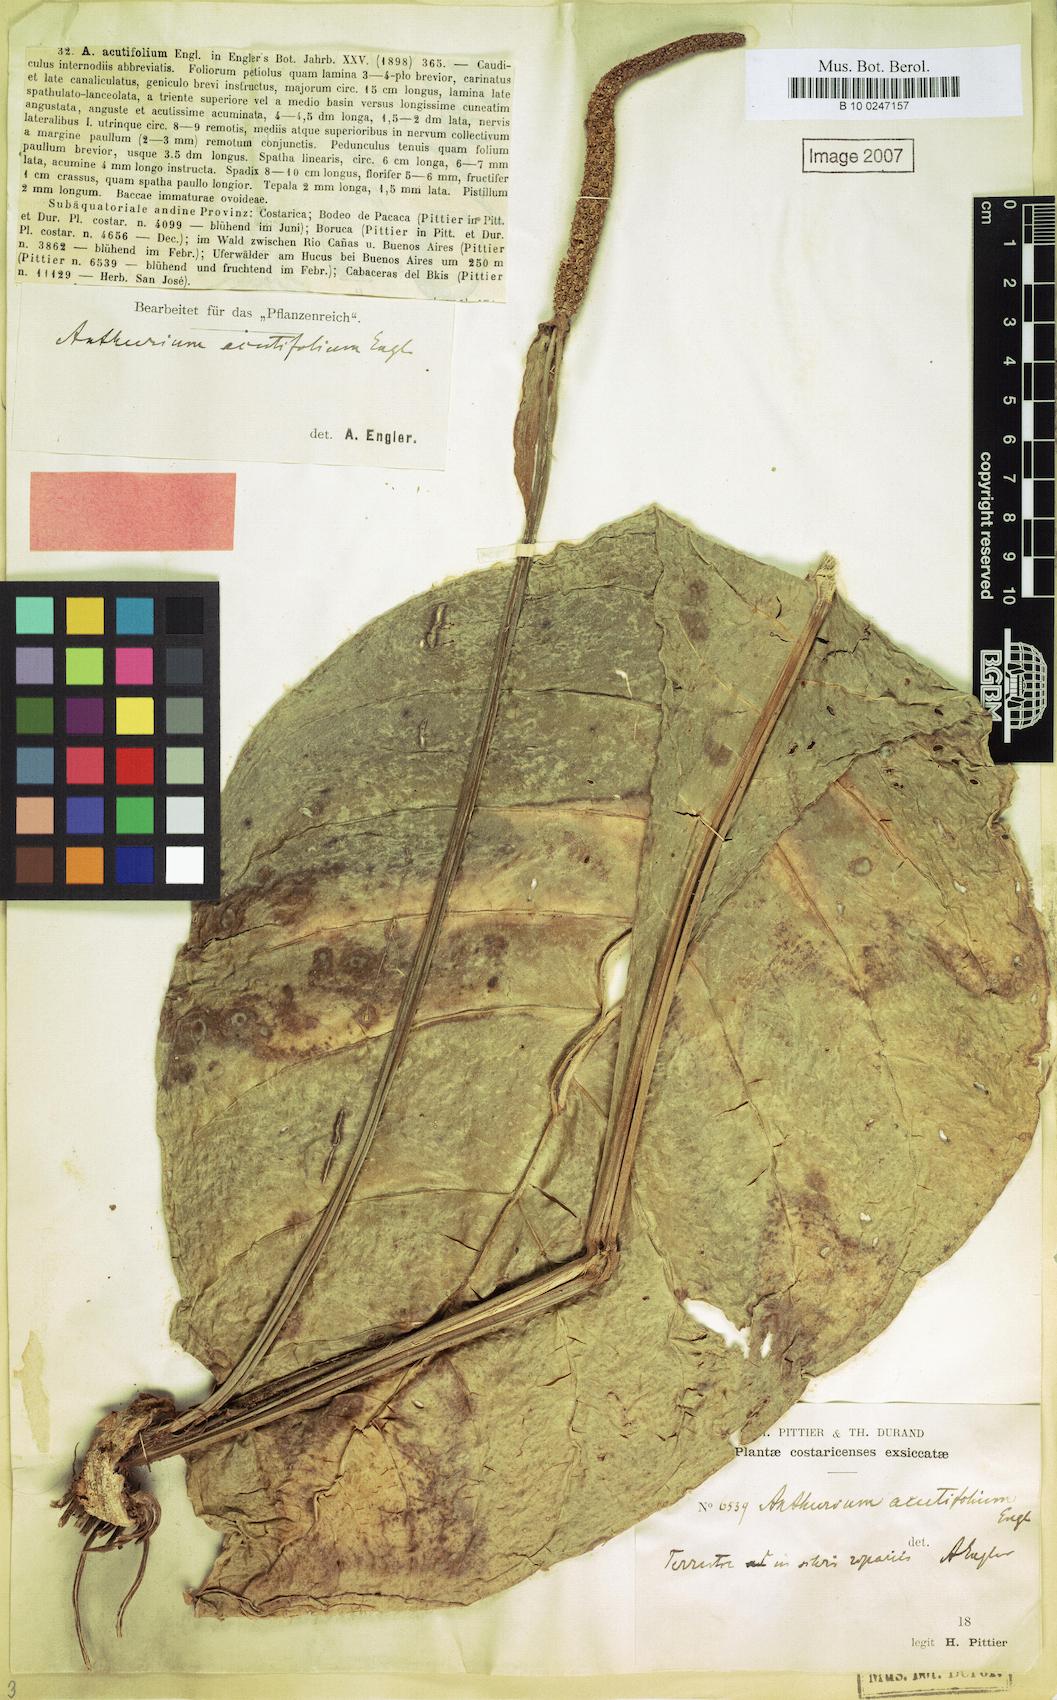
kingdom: Plantae
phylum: Tracheophyta
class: Liliopsida
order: Alismatales
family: Araceae
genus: Anthurium
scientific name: Anthurium acutifolium
